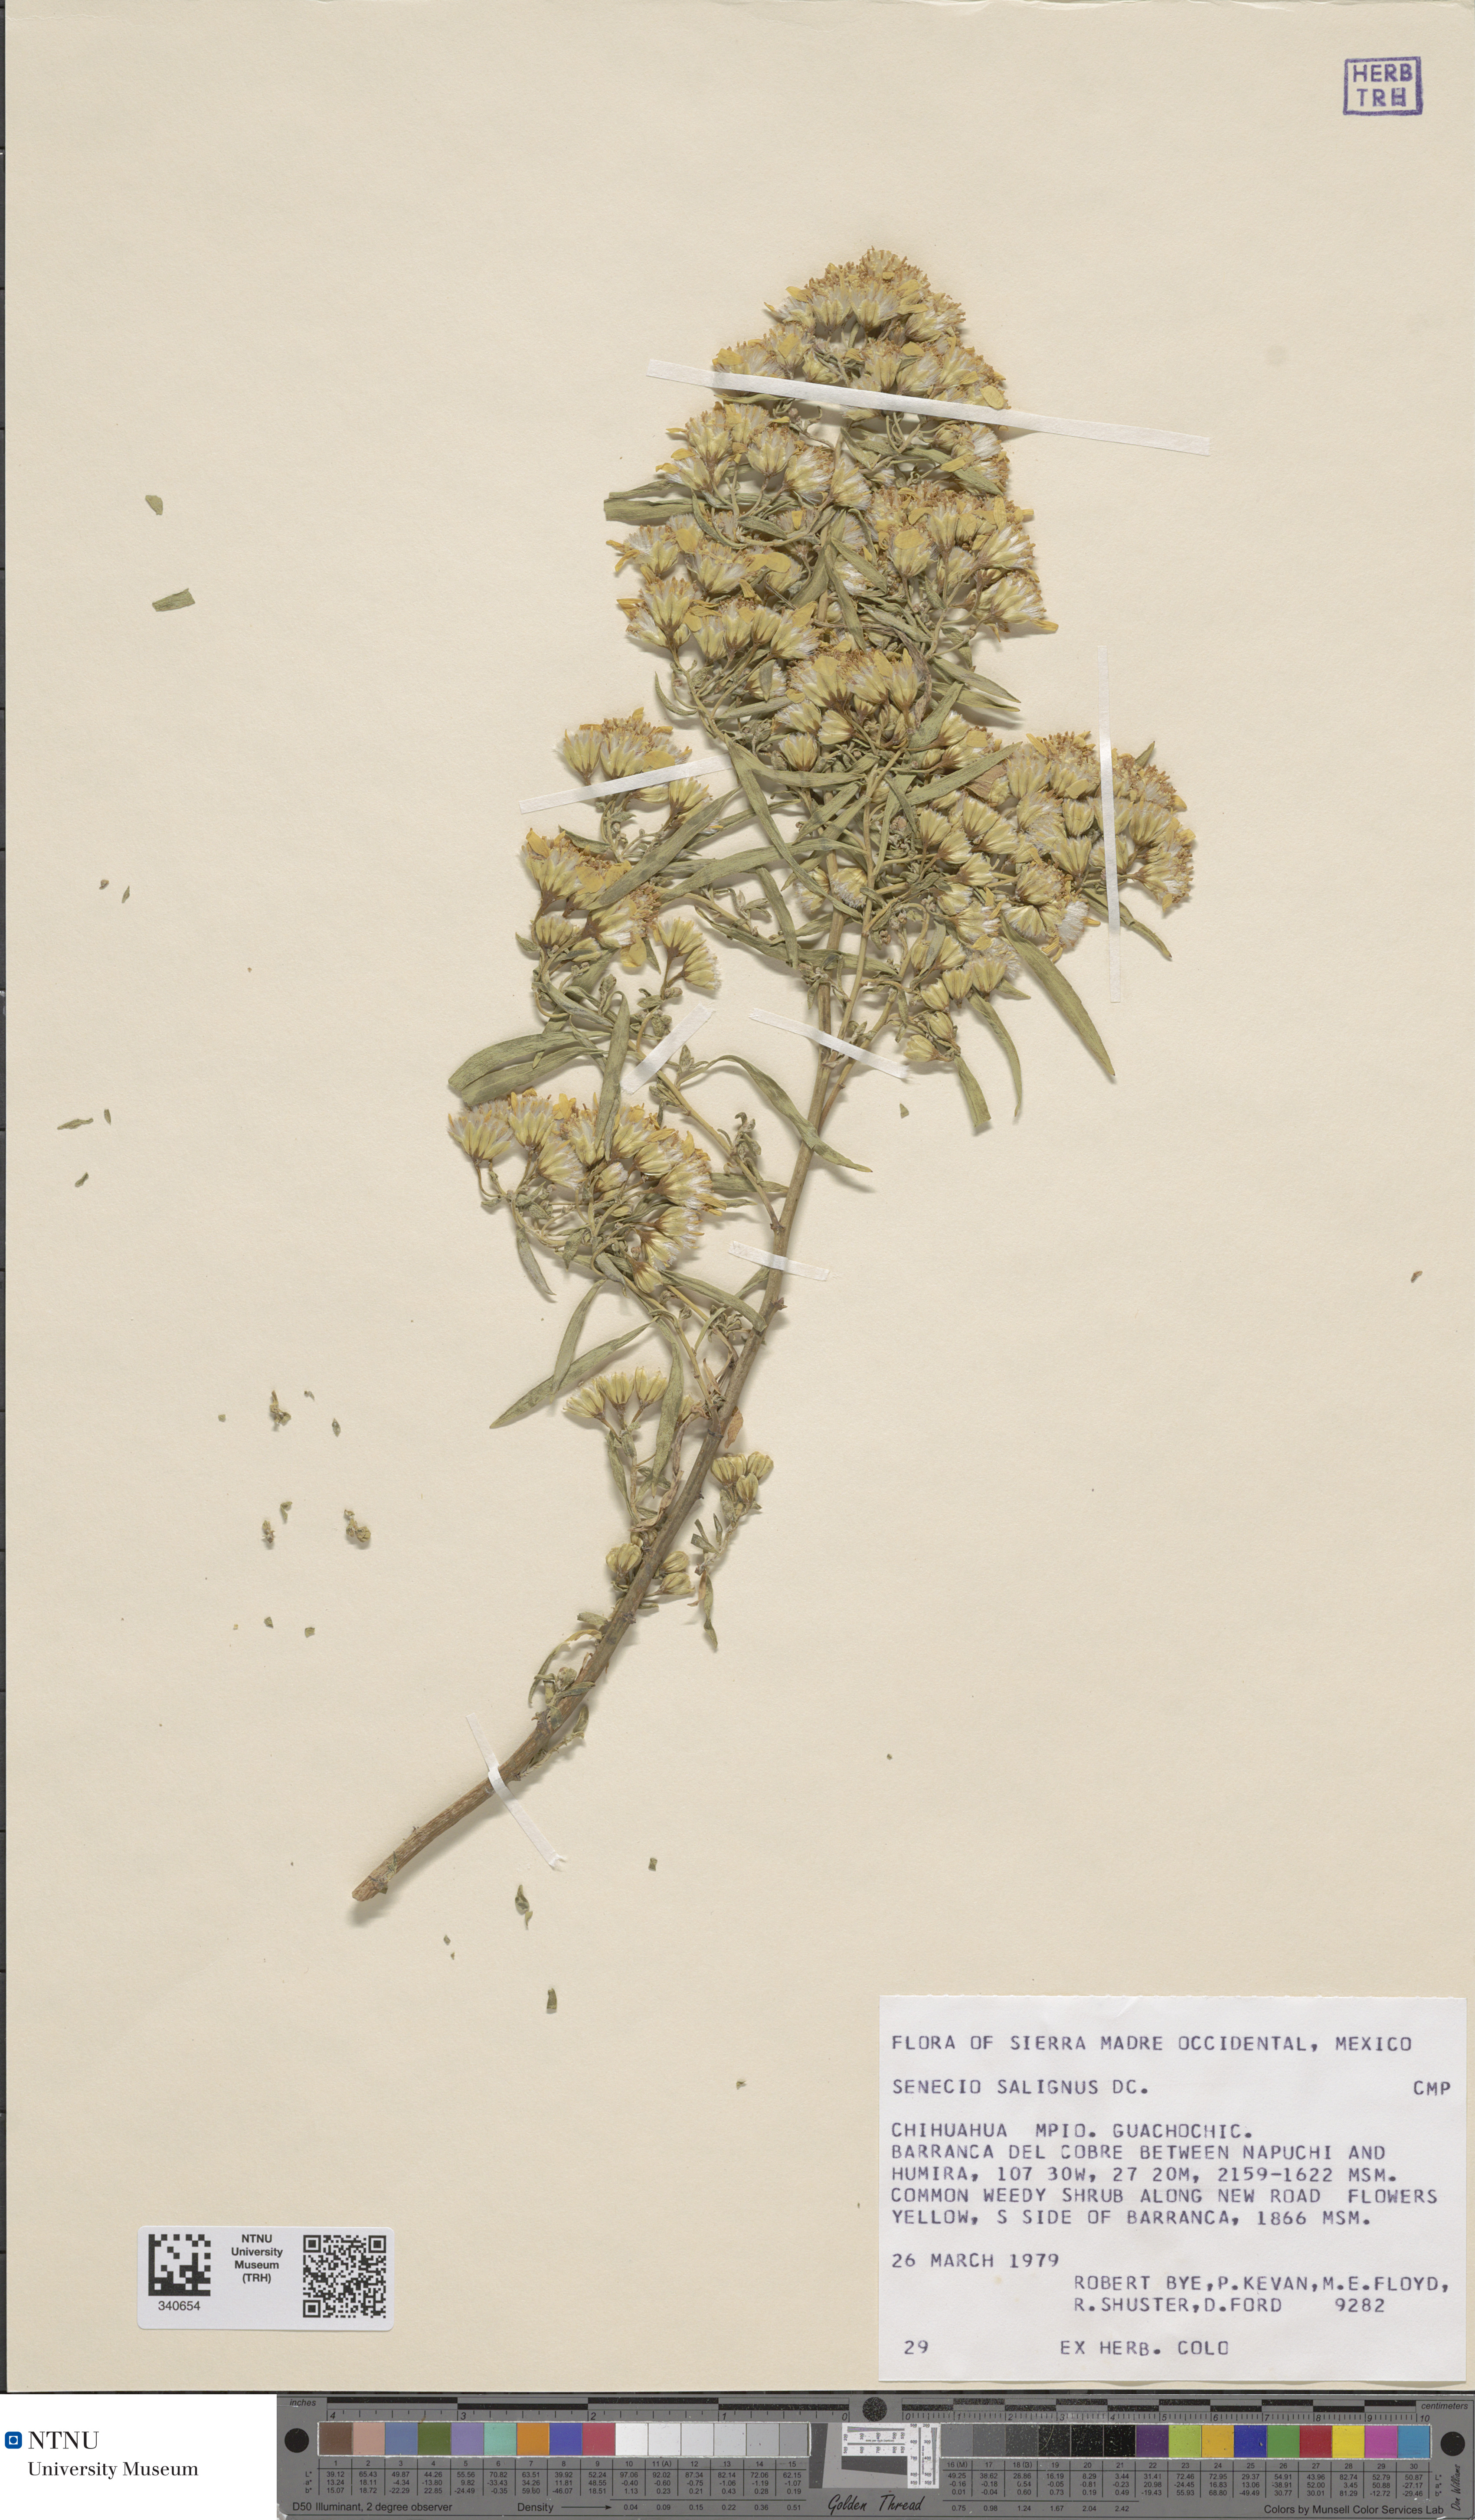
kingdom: Plantae
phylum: Tracheophyta
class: Magnoliopsida
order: Asterales
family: Asteraceae
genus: Barkleyanthus
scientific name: Barkleyanthus salicifolius
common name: Willow ragwort
